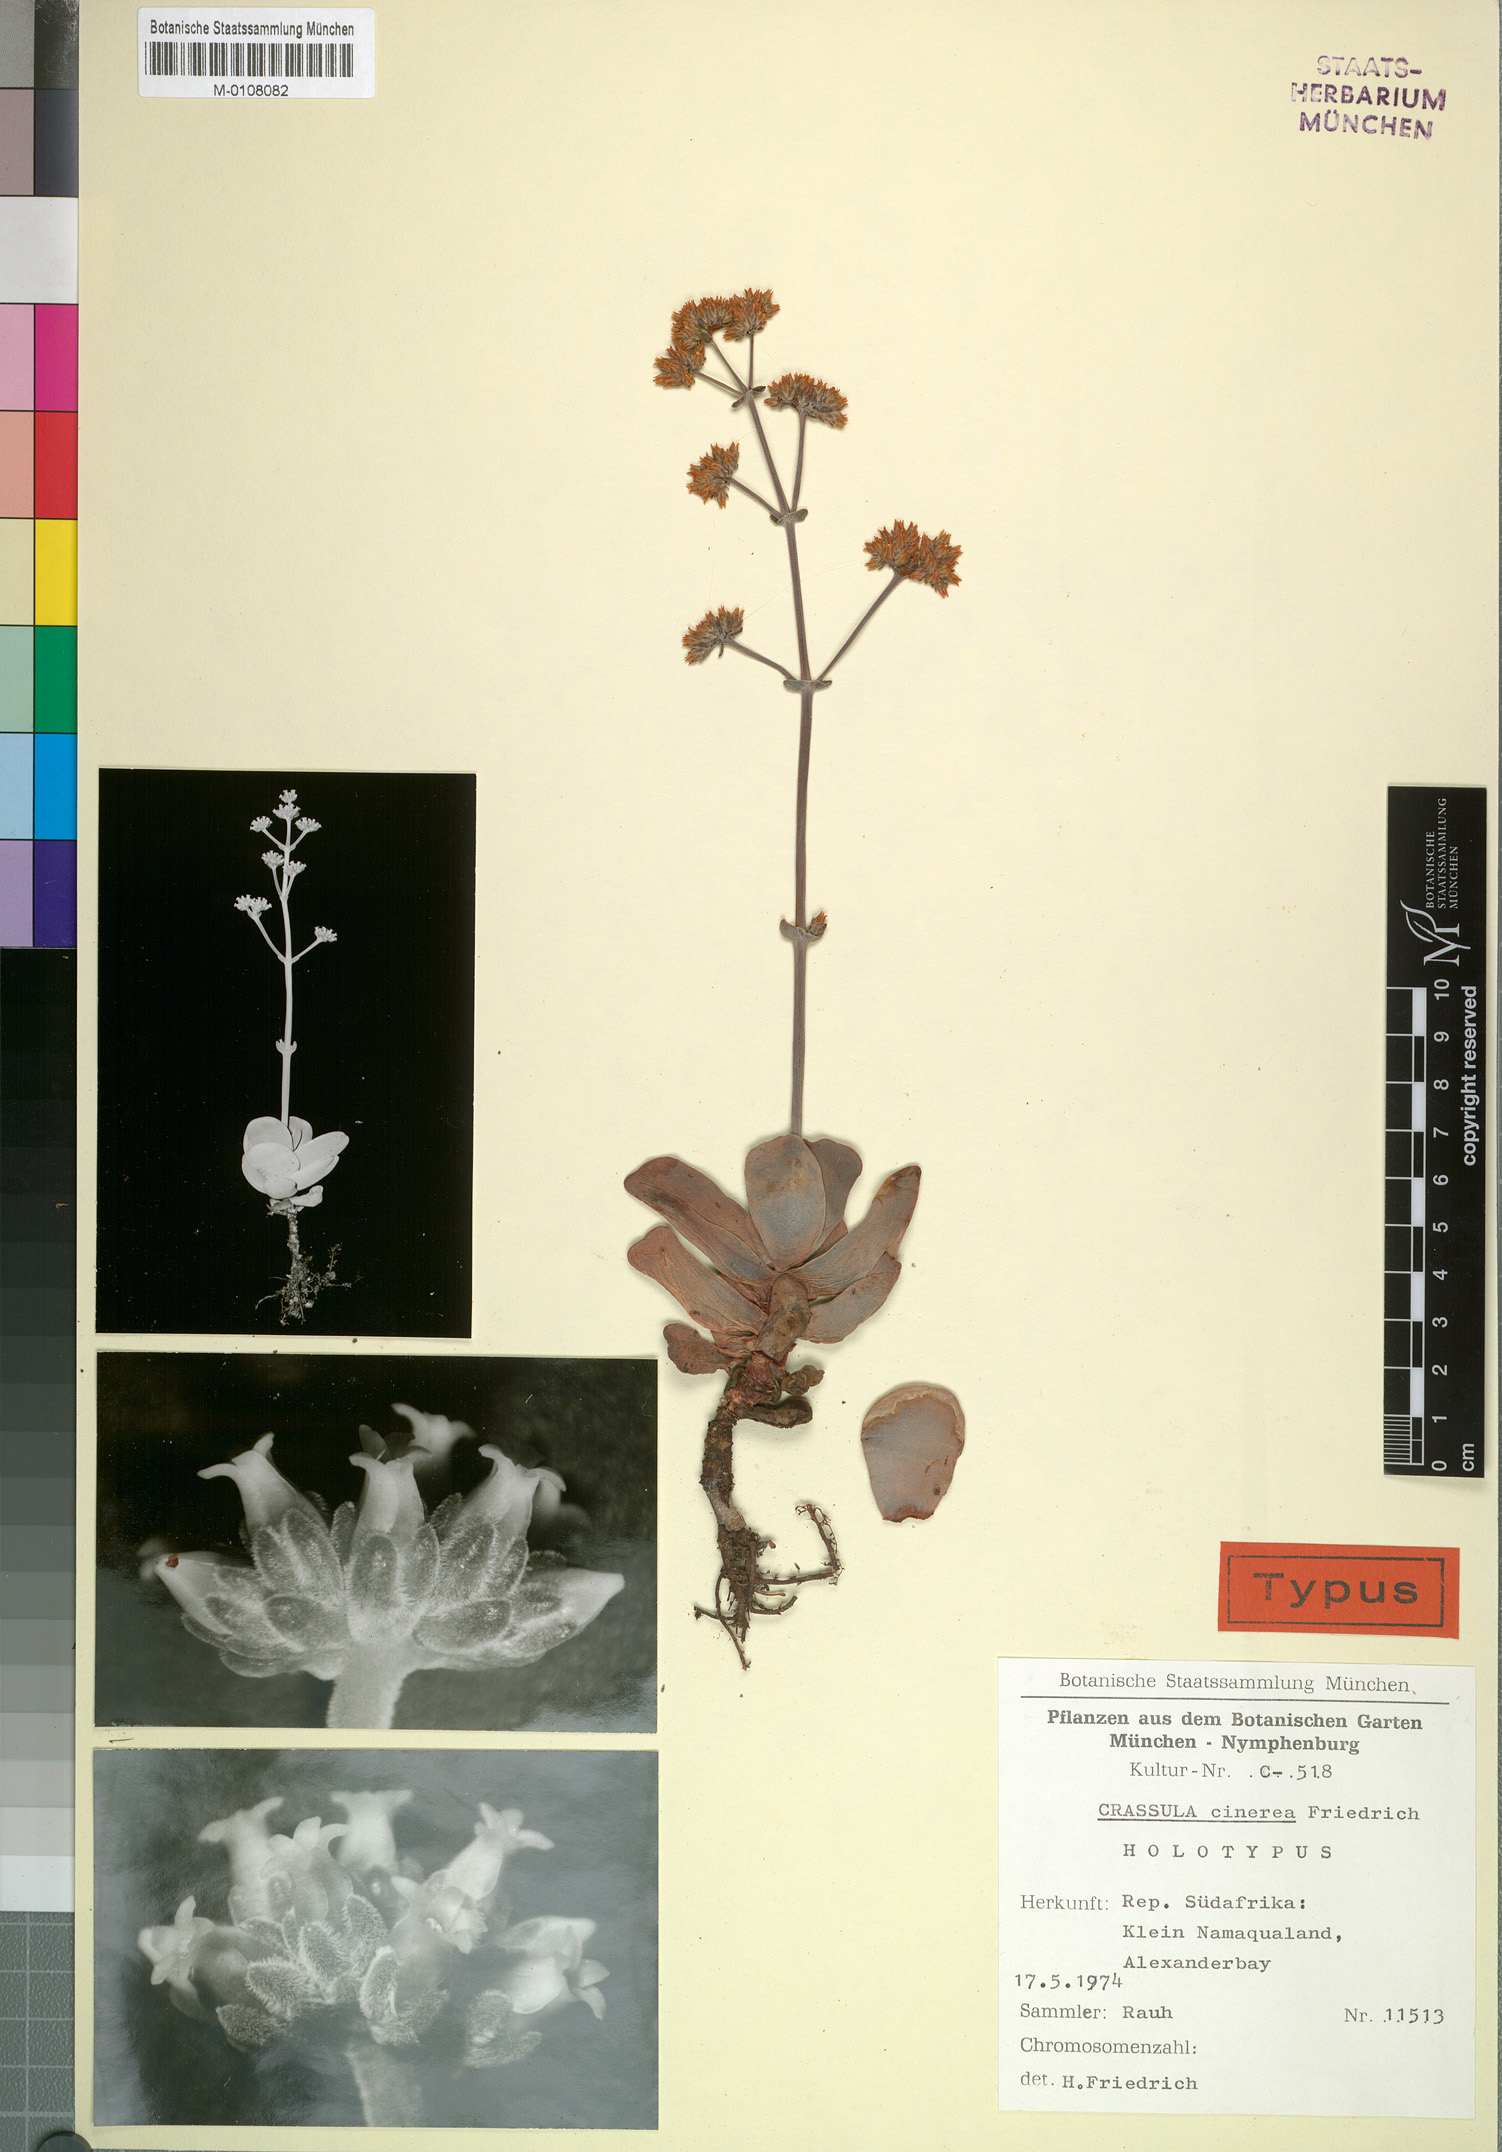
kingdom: Plantae
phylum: Tracheophyta
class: Magnoliopsida
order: Saxifragales
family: Crassulaceae
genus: Crassula
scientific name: Crassula atropurpurea
